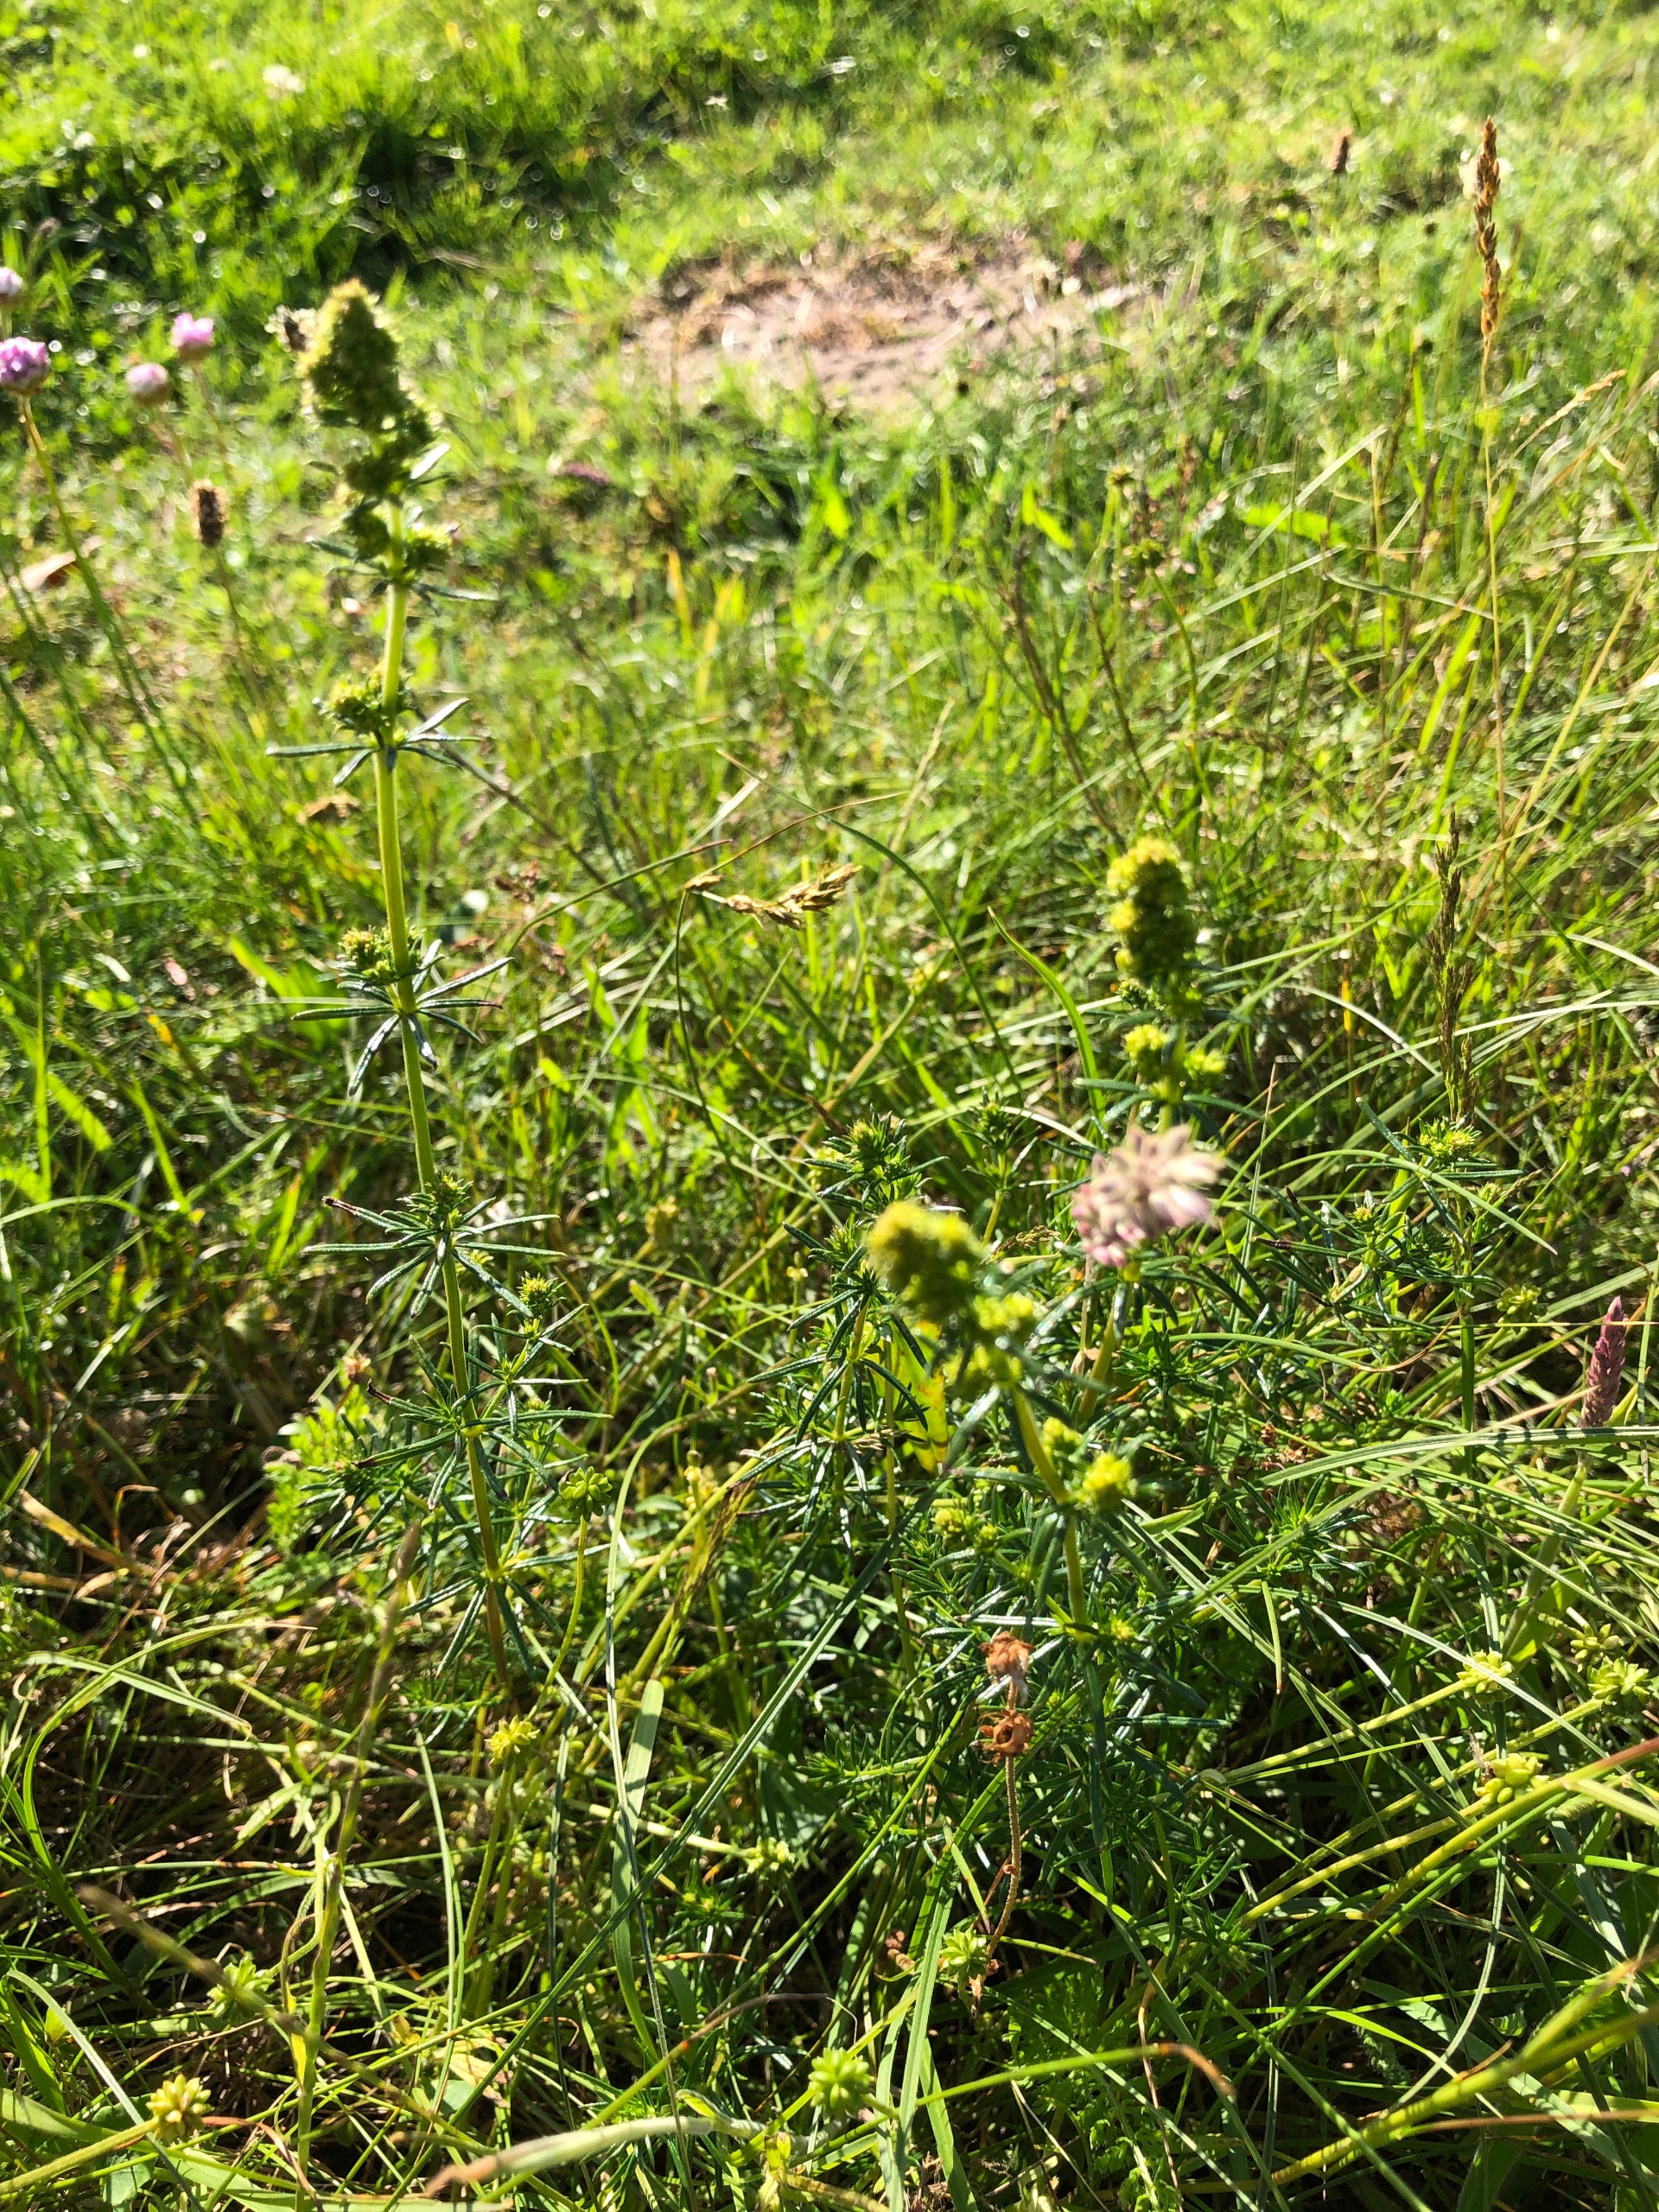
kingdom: Plantae
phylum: Tracheophyta
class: Magnoliopsida
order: Gentianales
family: Rubiaceae
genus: Galium
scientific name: Galium verum
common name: Gul snerre
